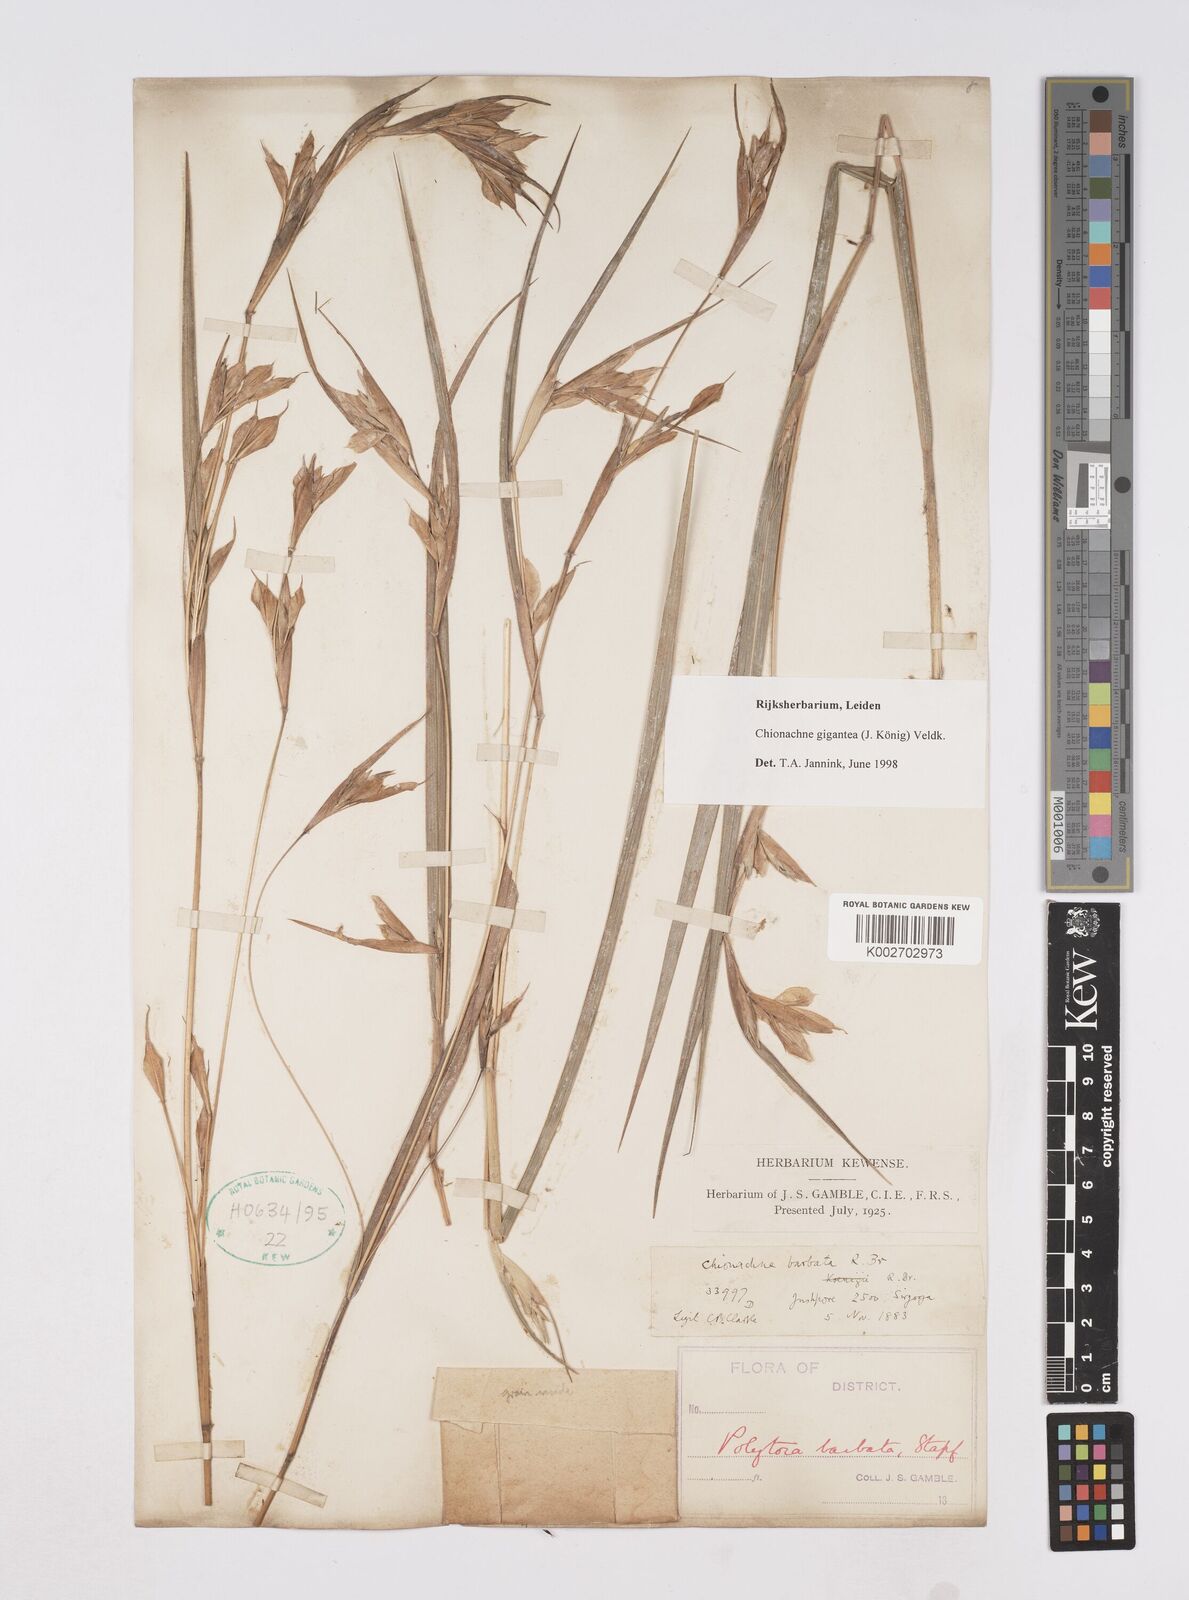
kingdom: Plantae
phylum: Tracheophyta
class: Liliopsida
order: Poales
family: Poaceae
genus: Polytoca
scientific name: Polytoca gigantea
